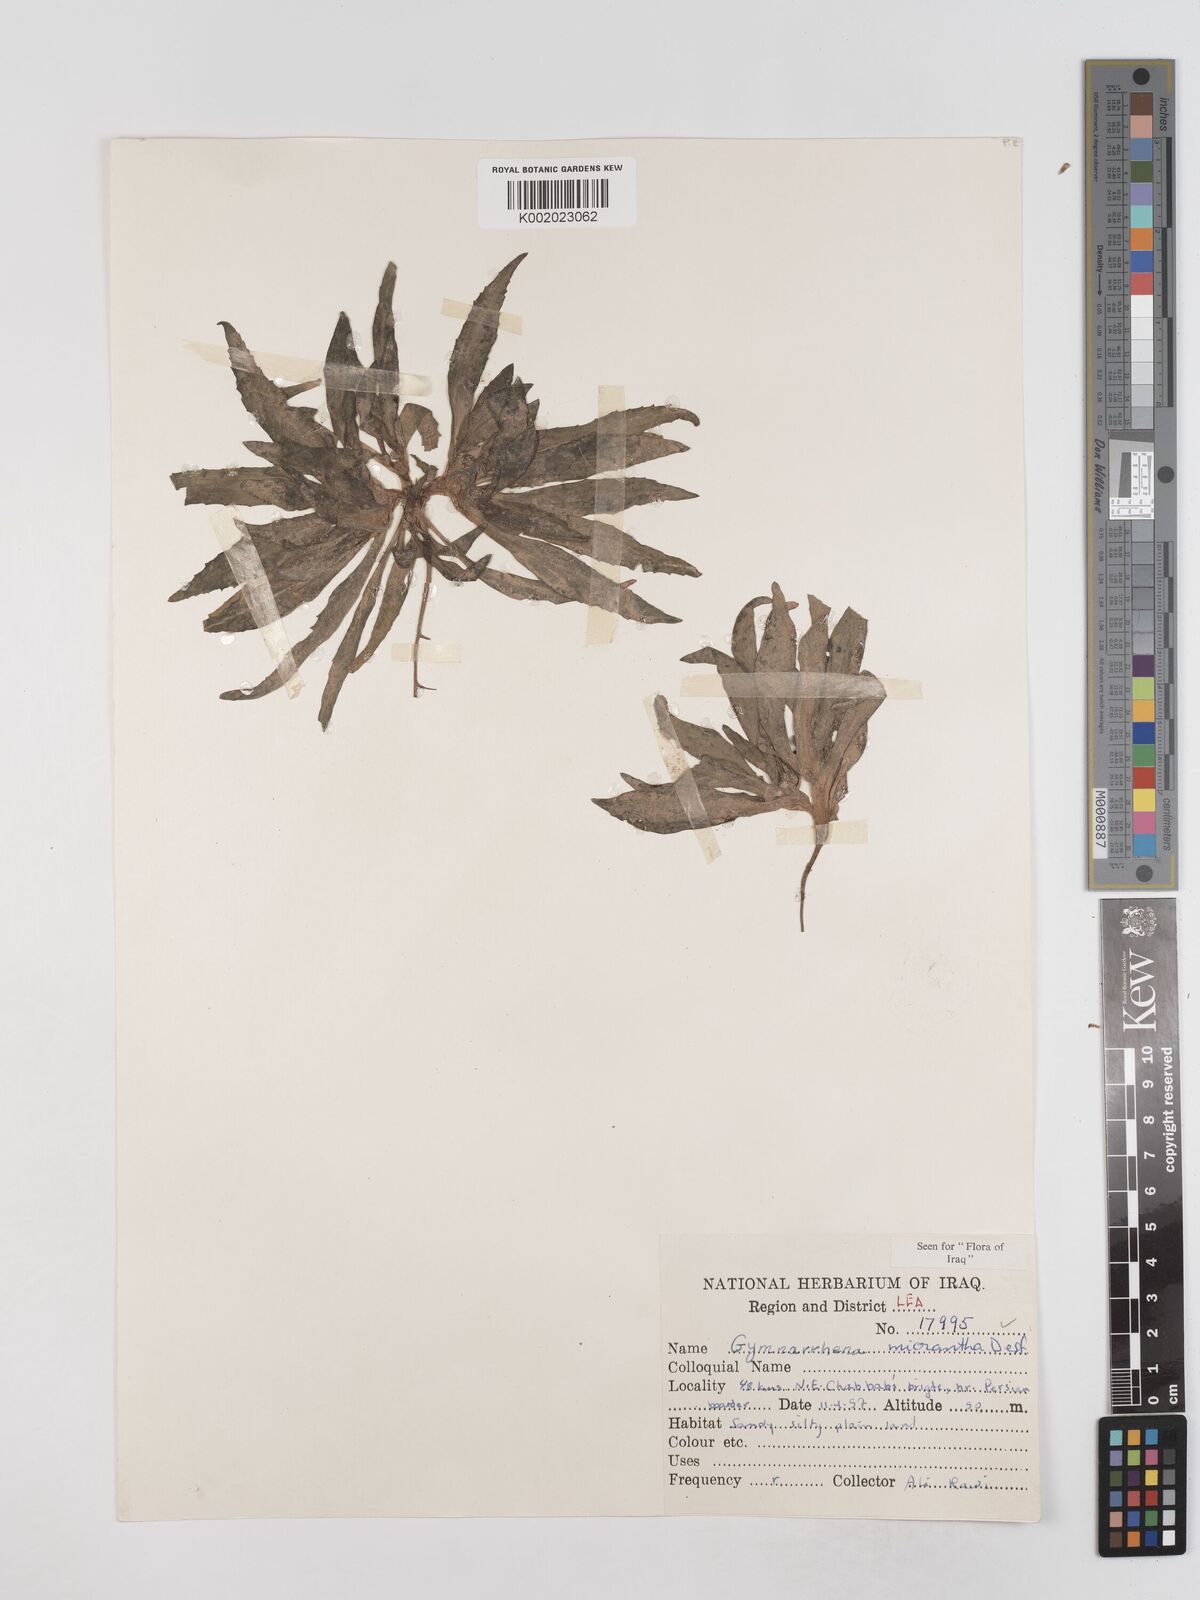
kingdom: Plantae
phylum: Tracheophyta
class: Magnoliopsida
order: Asterales
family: Asteraceae
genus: Gymnarrhena
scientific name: Gymnarrhena micrantha
